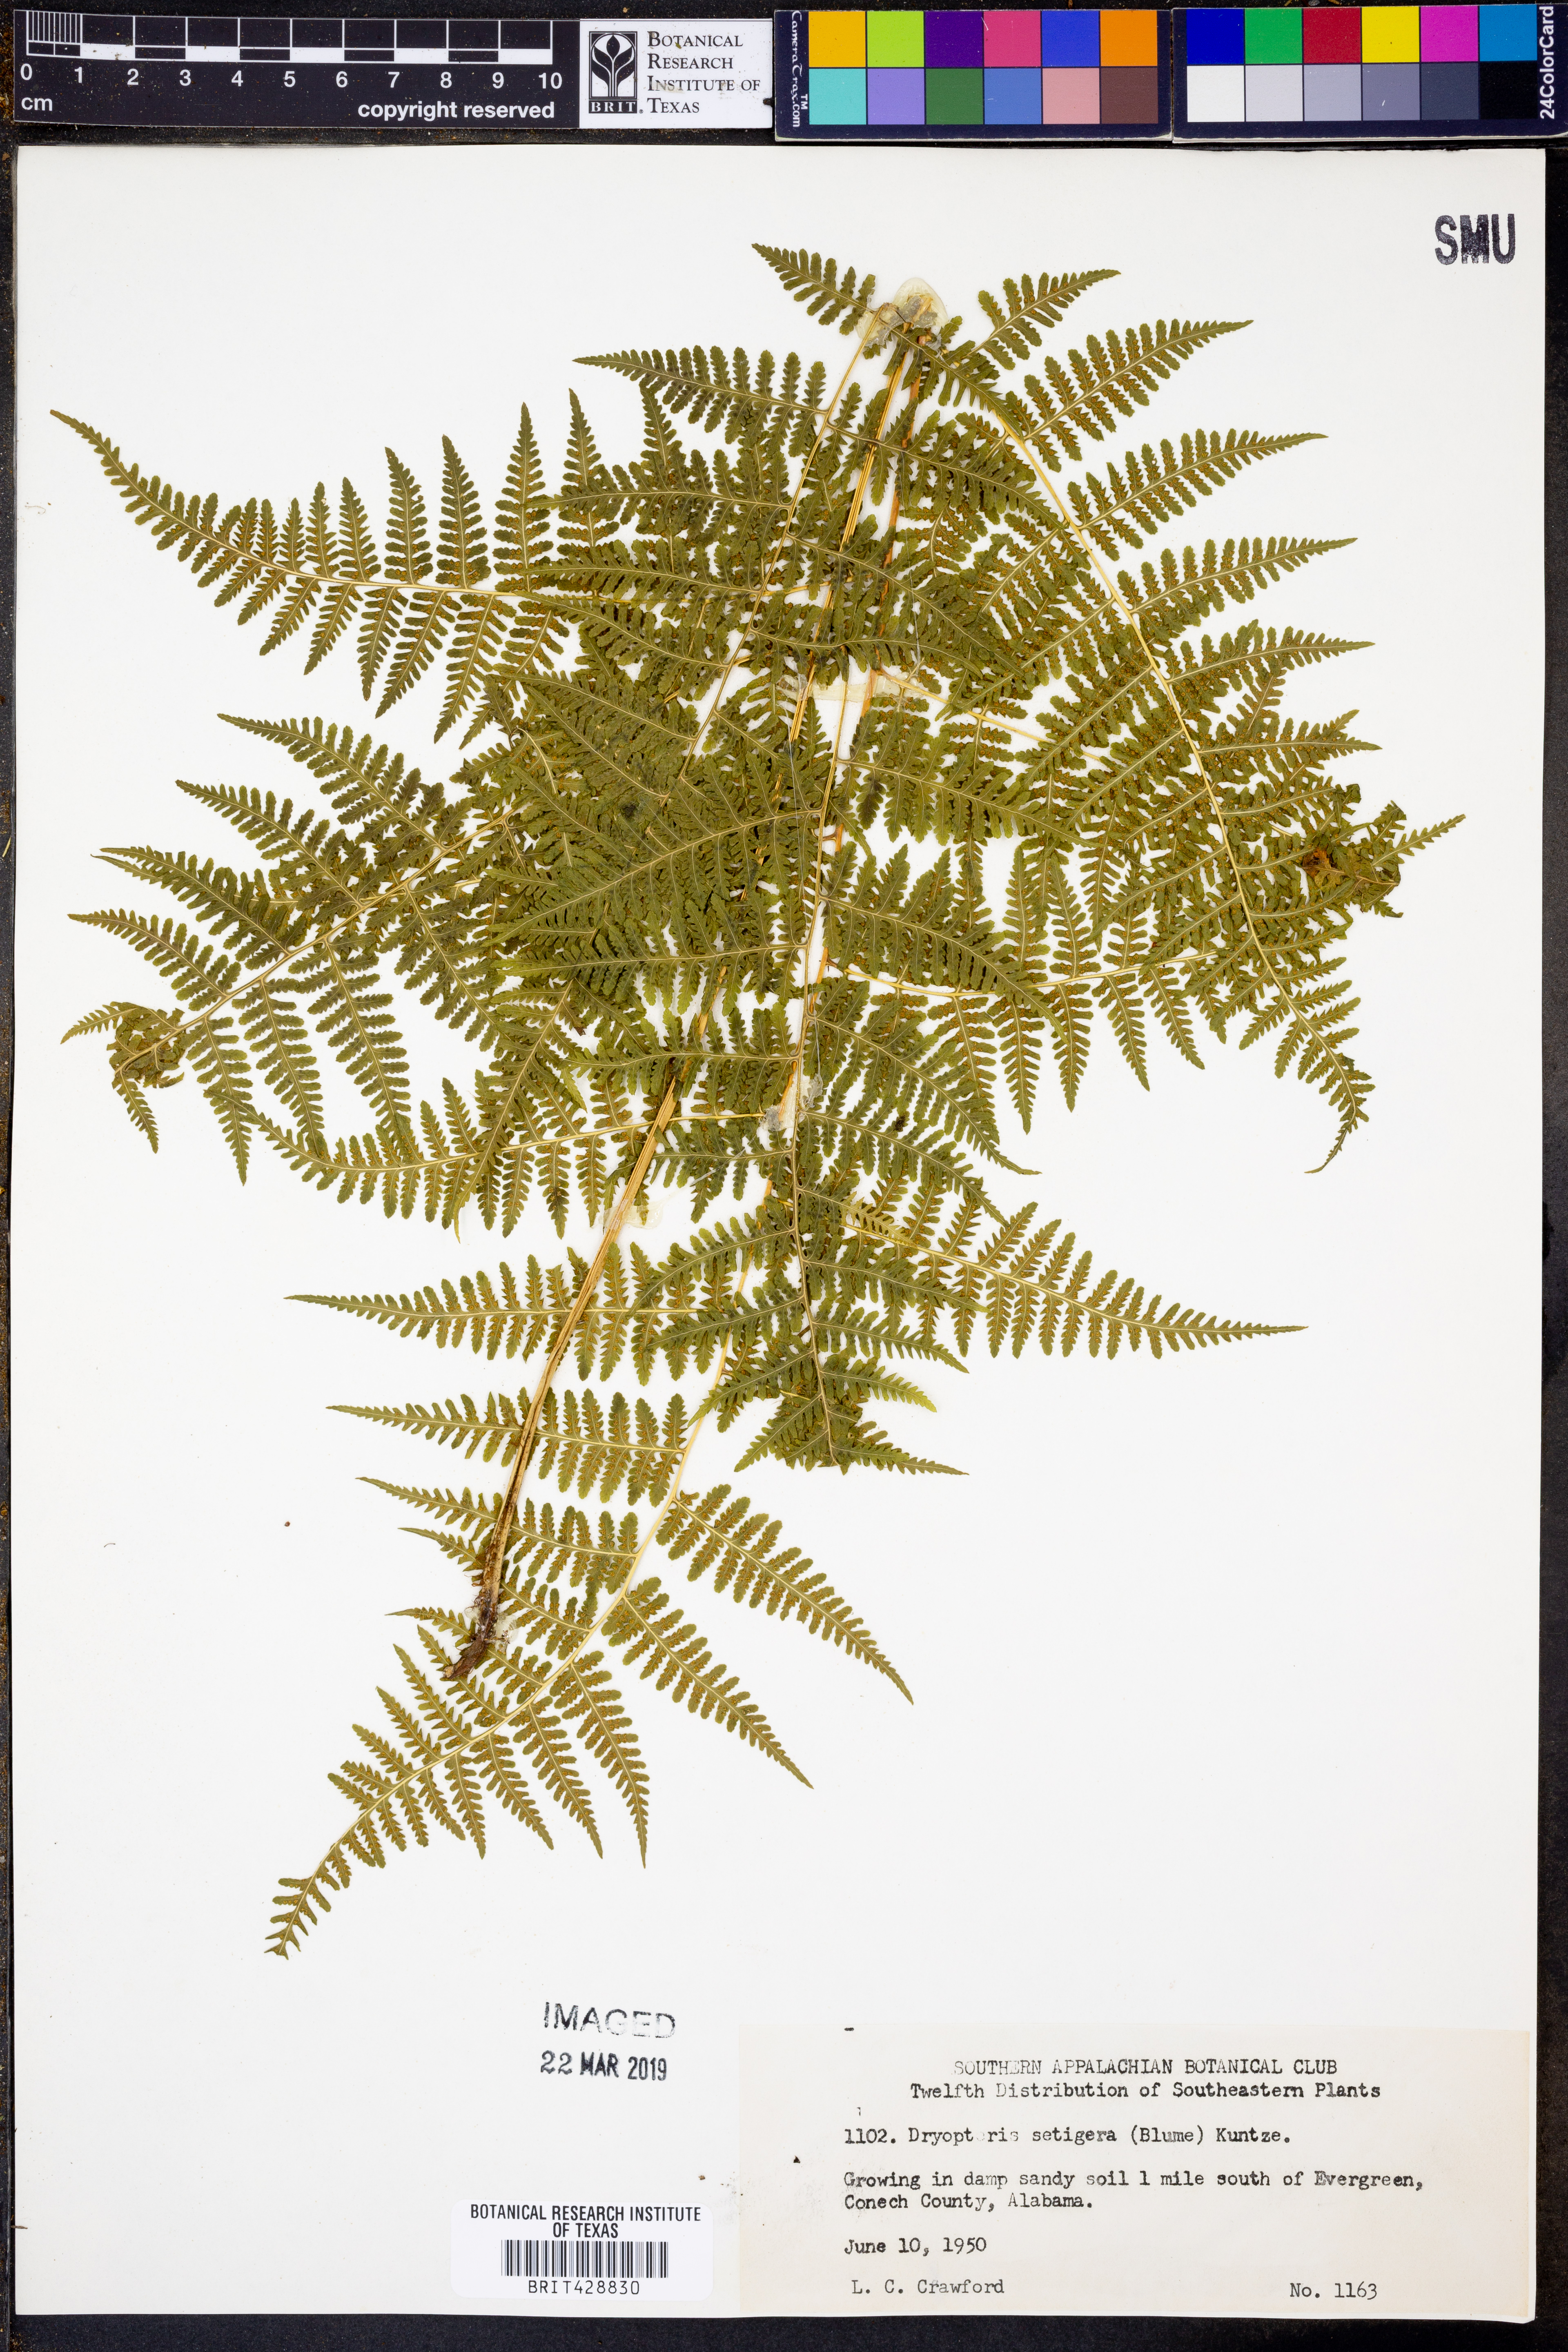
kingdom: Plantae
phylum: Tracheophyta
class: Polypodiopsida
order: Polypodiales
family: Thelypteridaceae
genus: Macrothelypteris
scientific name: Macrothelypteris torresiana
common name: Swordfern
